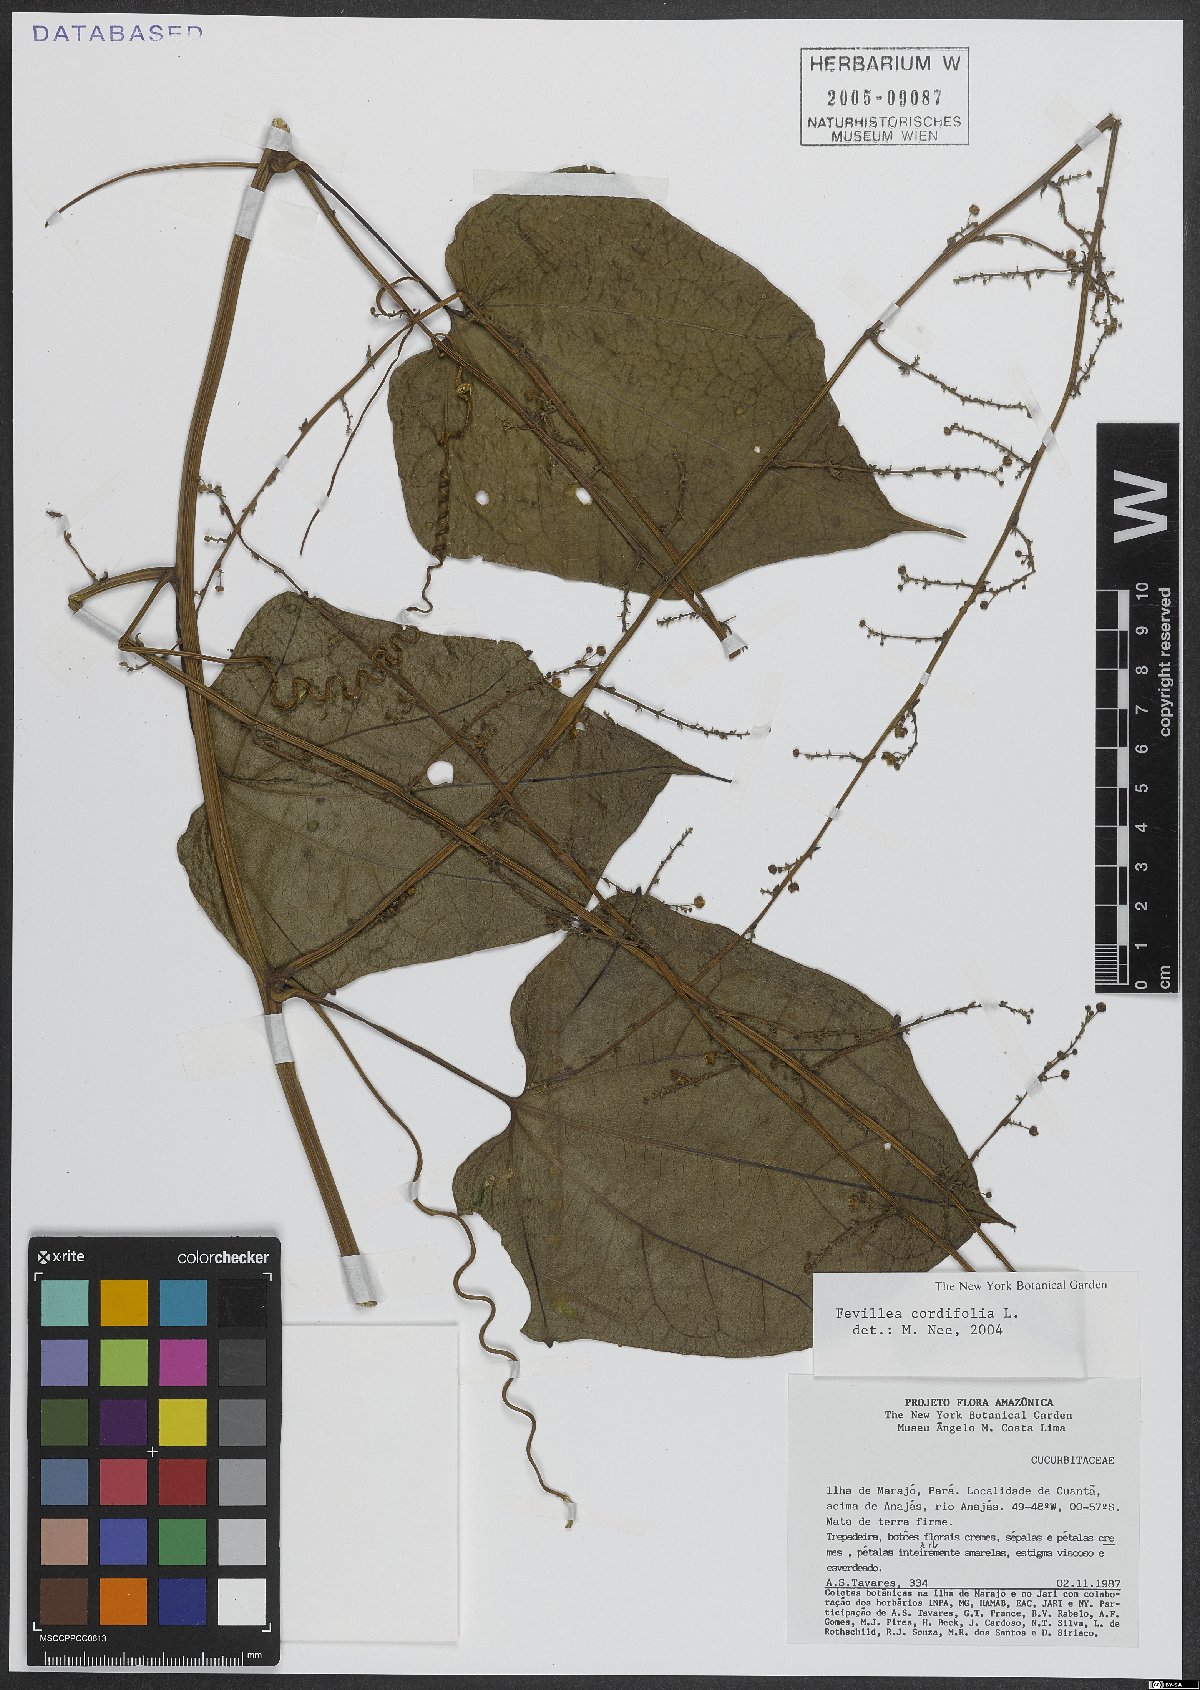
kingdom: Plantae
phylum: Tracheophyta
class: Magnoliopsida
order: Cucurbitales
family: Cucurbitaceae
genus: Fevillea
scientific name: Fevillea cordifolia
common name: Antidote-vine
